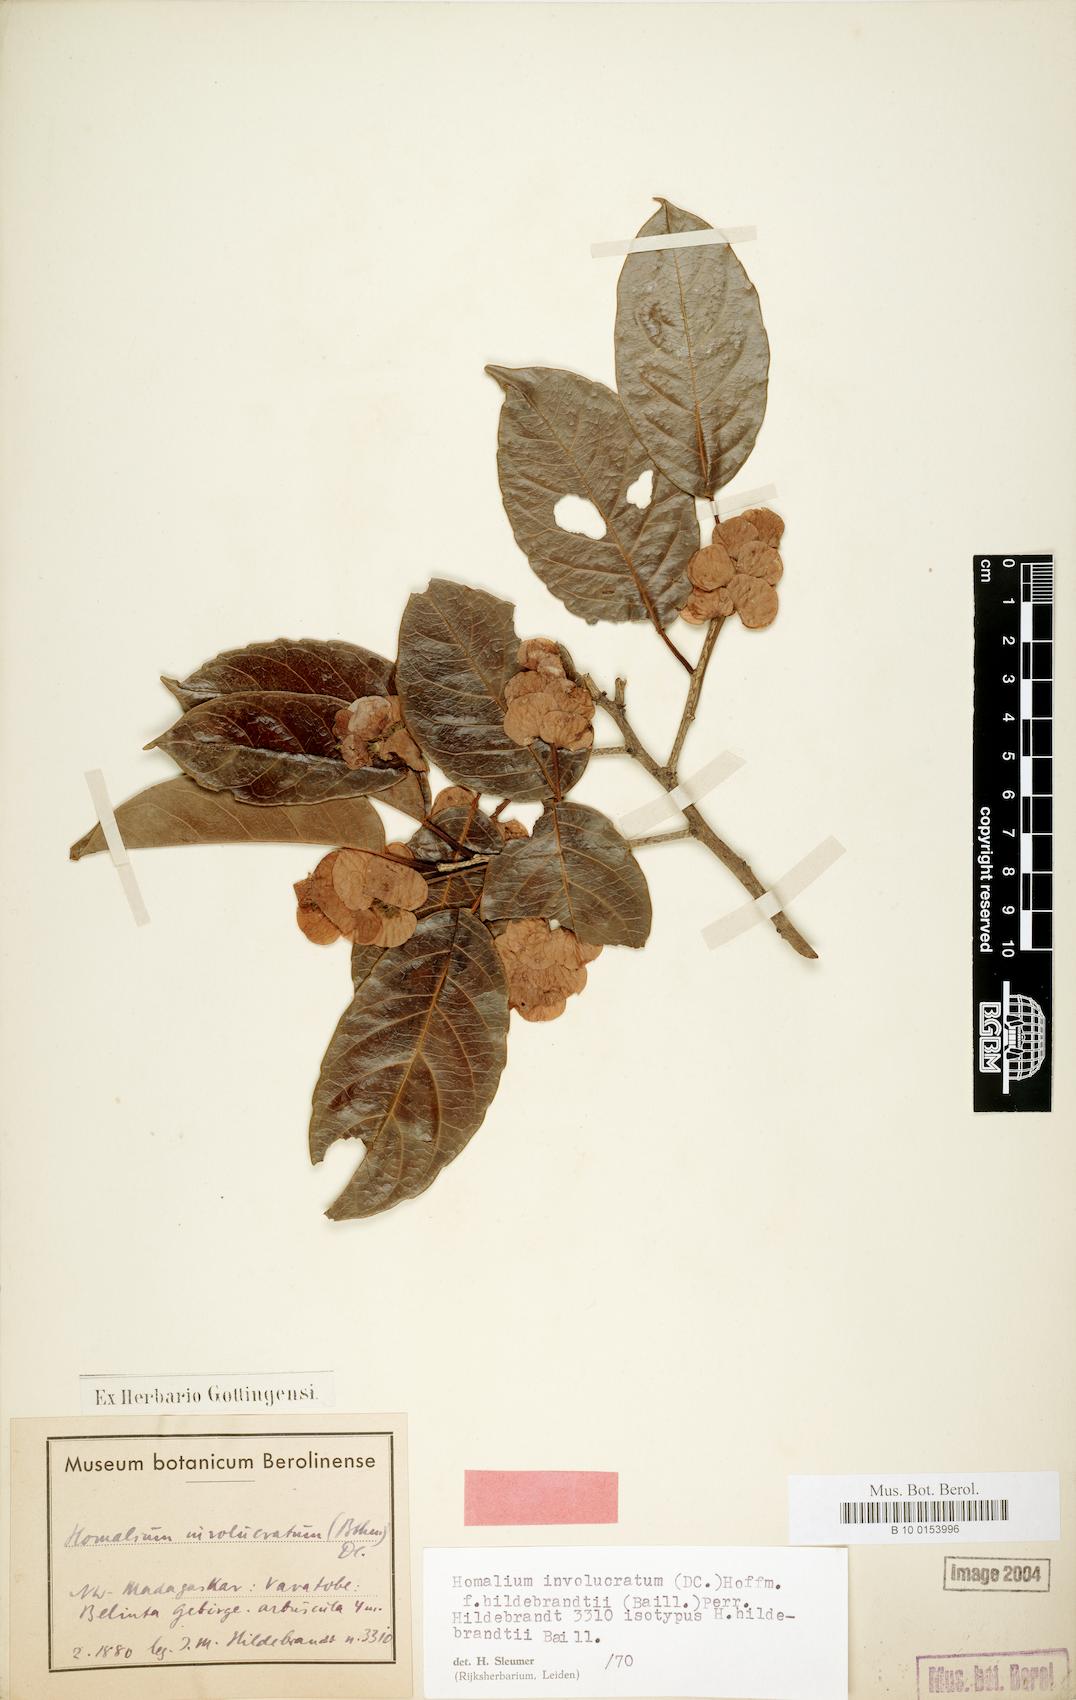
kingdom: Plantae
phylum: Tracheophyta
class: Magnoliopsida
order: Malpighiales
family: Salicaceae
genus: Homalium
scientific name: Homalium involucratum
